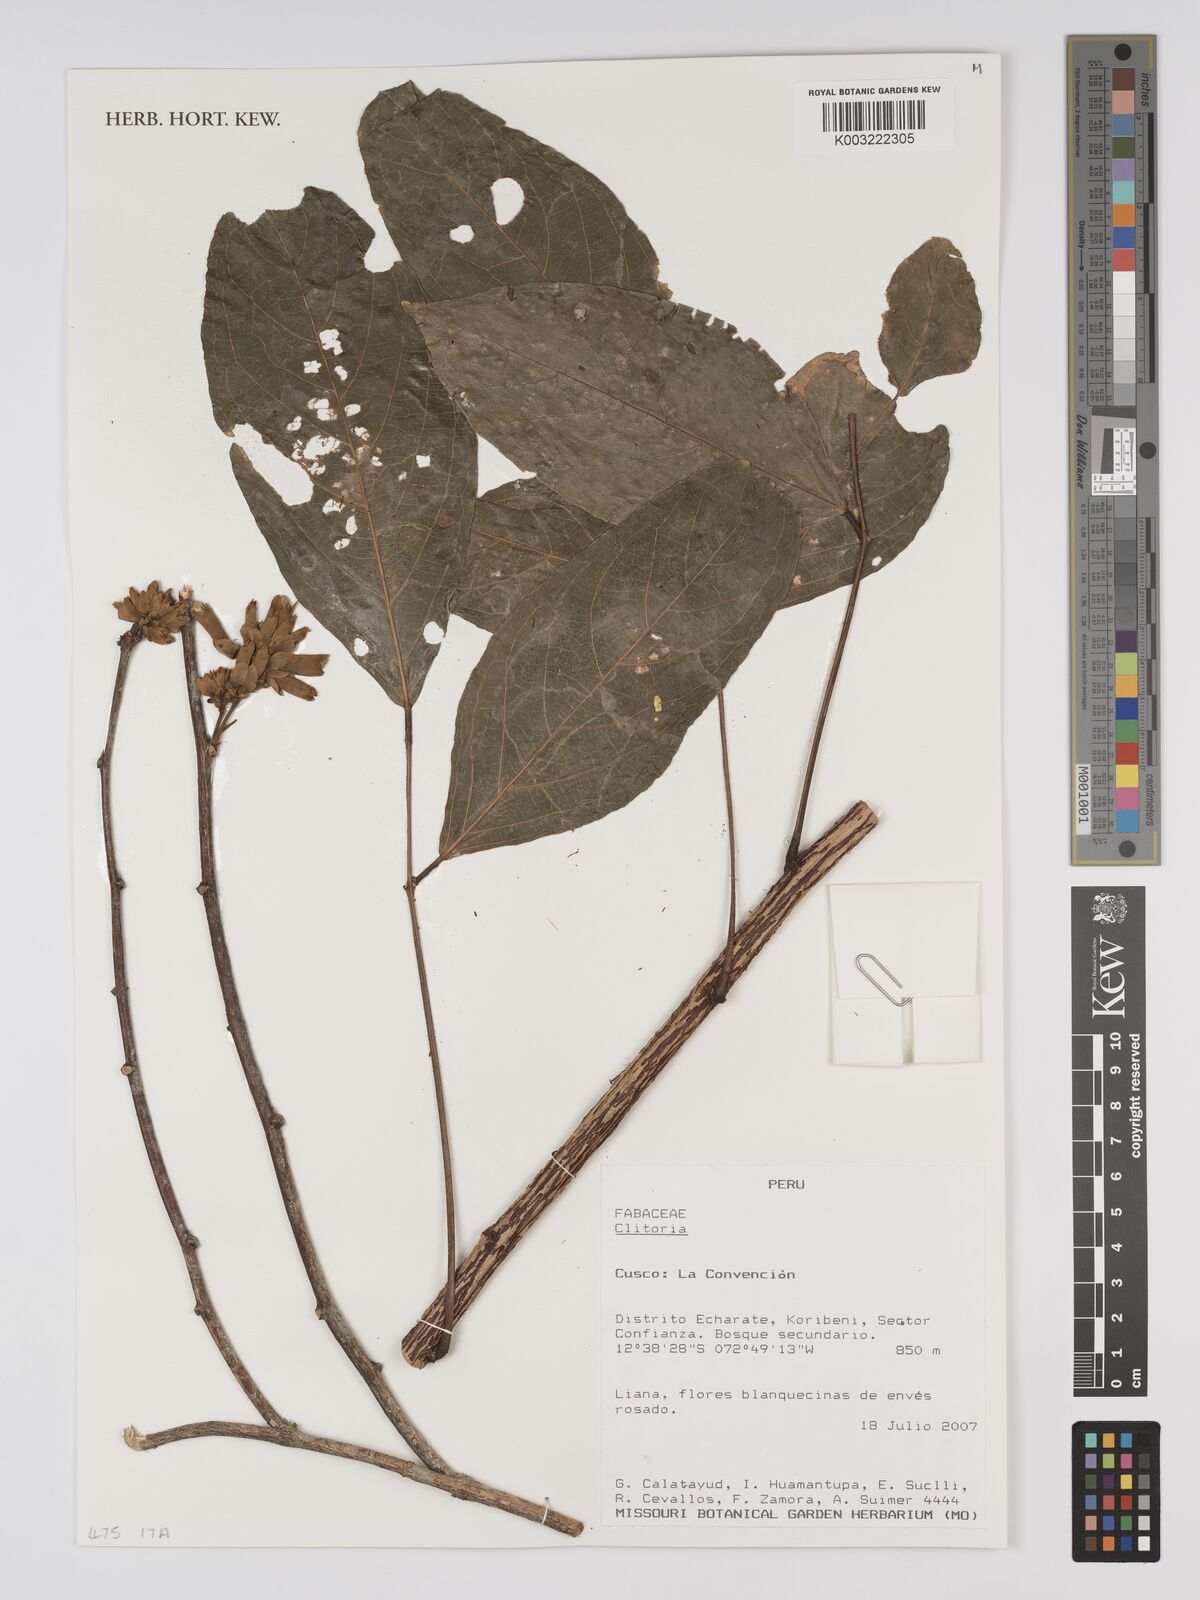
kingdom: Plantae
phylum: Tracheophyta
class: Magnoliopsida
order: Fabales
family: Fabaceae
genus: Clitoria
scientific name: Clitoria
